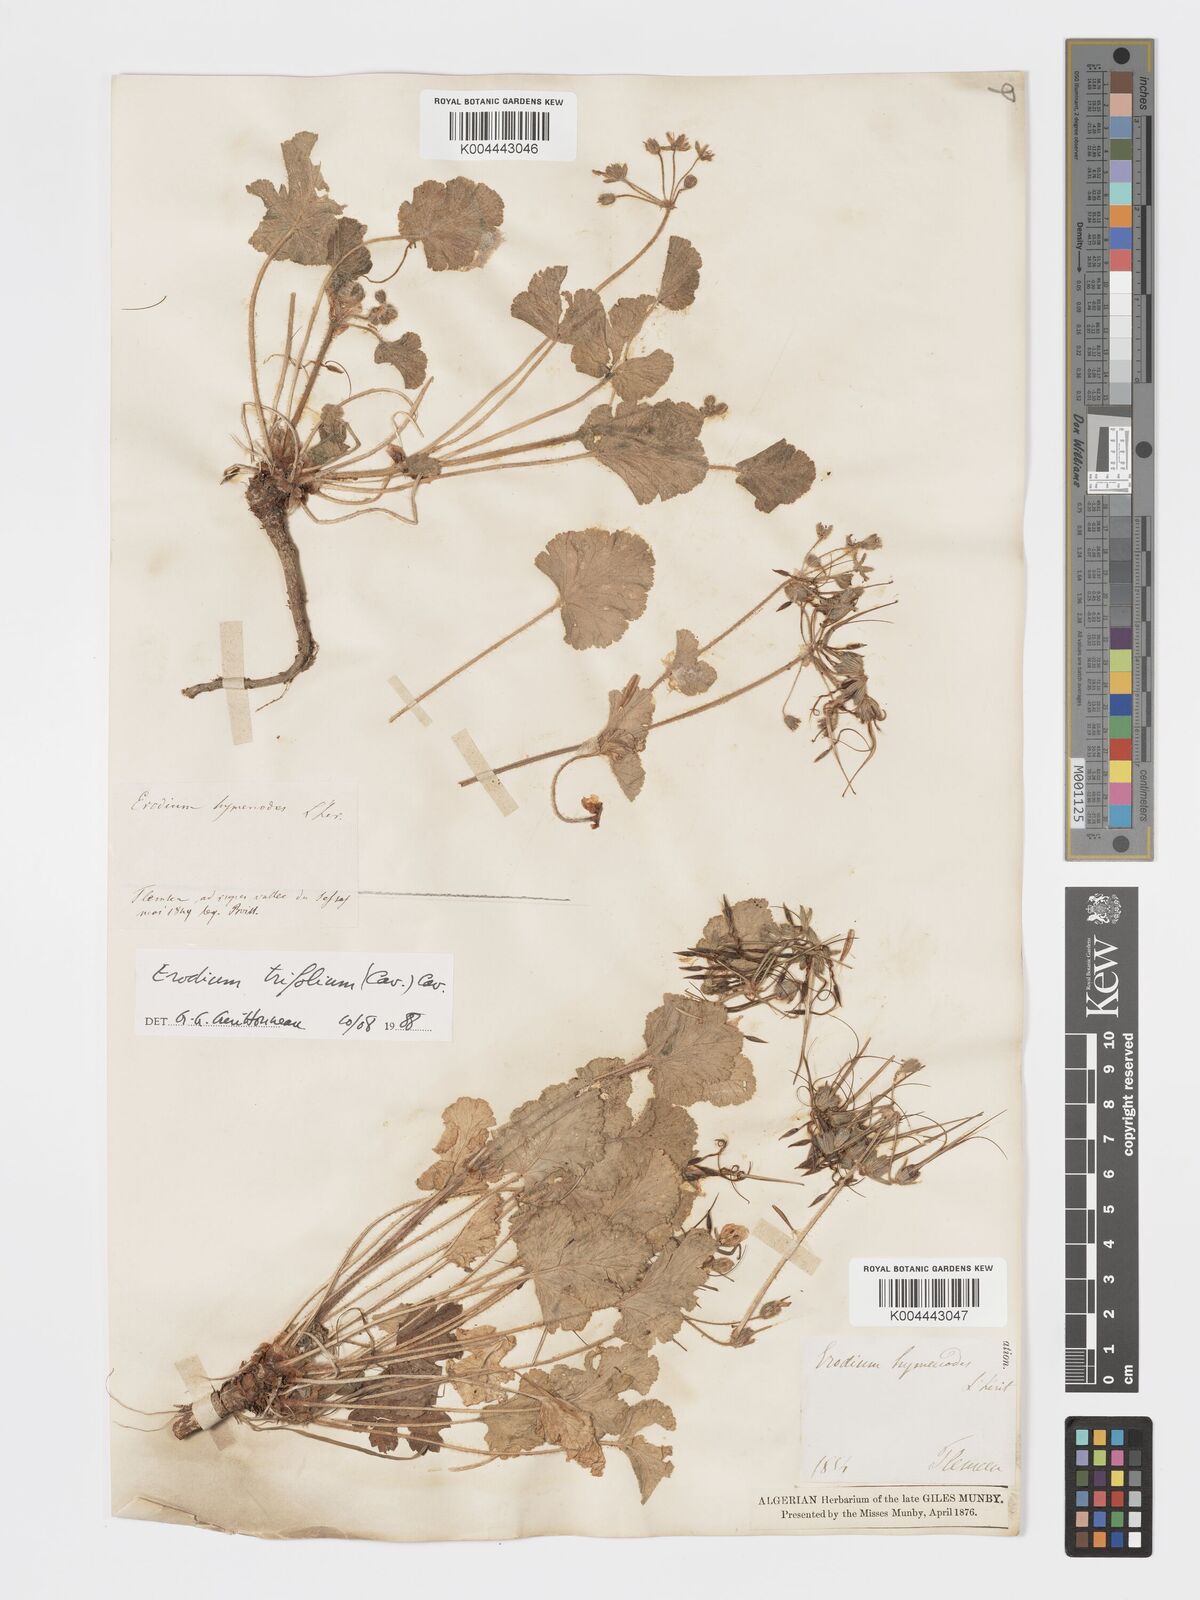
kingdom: Plantae
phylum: Tracheophyta
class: Magnoliopsida
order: Geraniales
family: Geraniaceae
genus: Erodium
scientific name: Erodium trifolium
